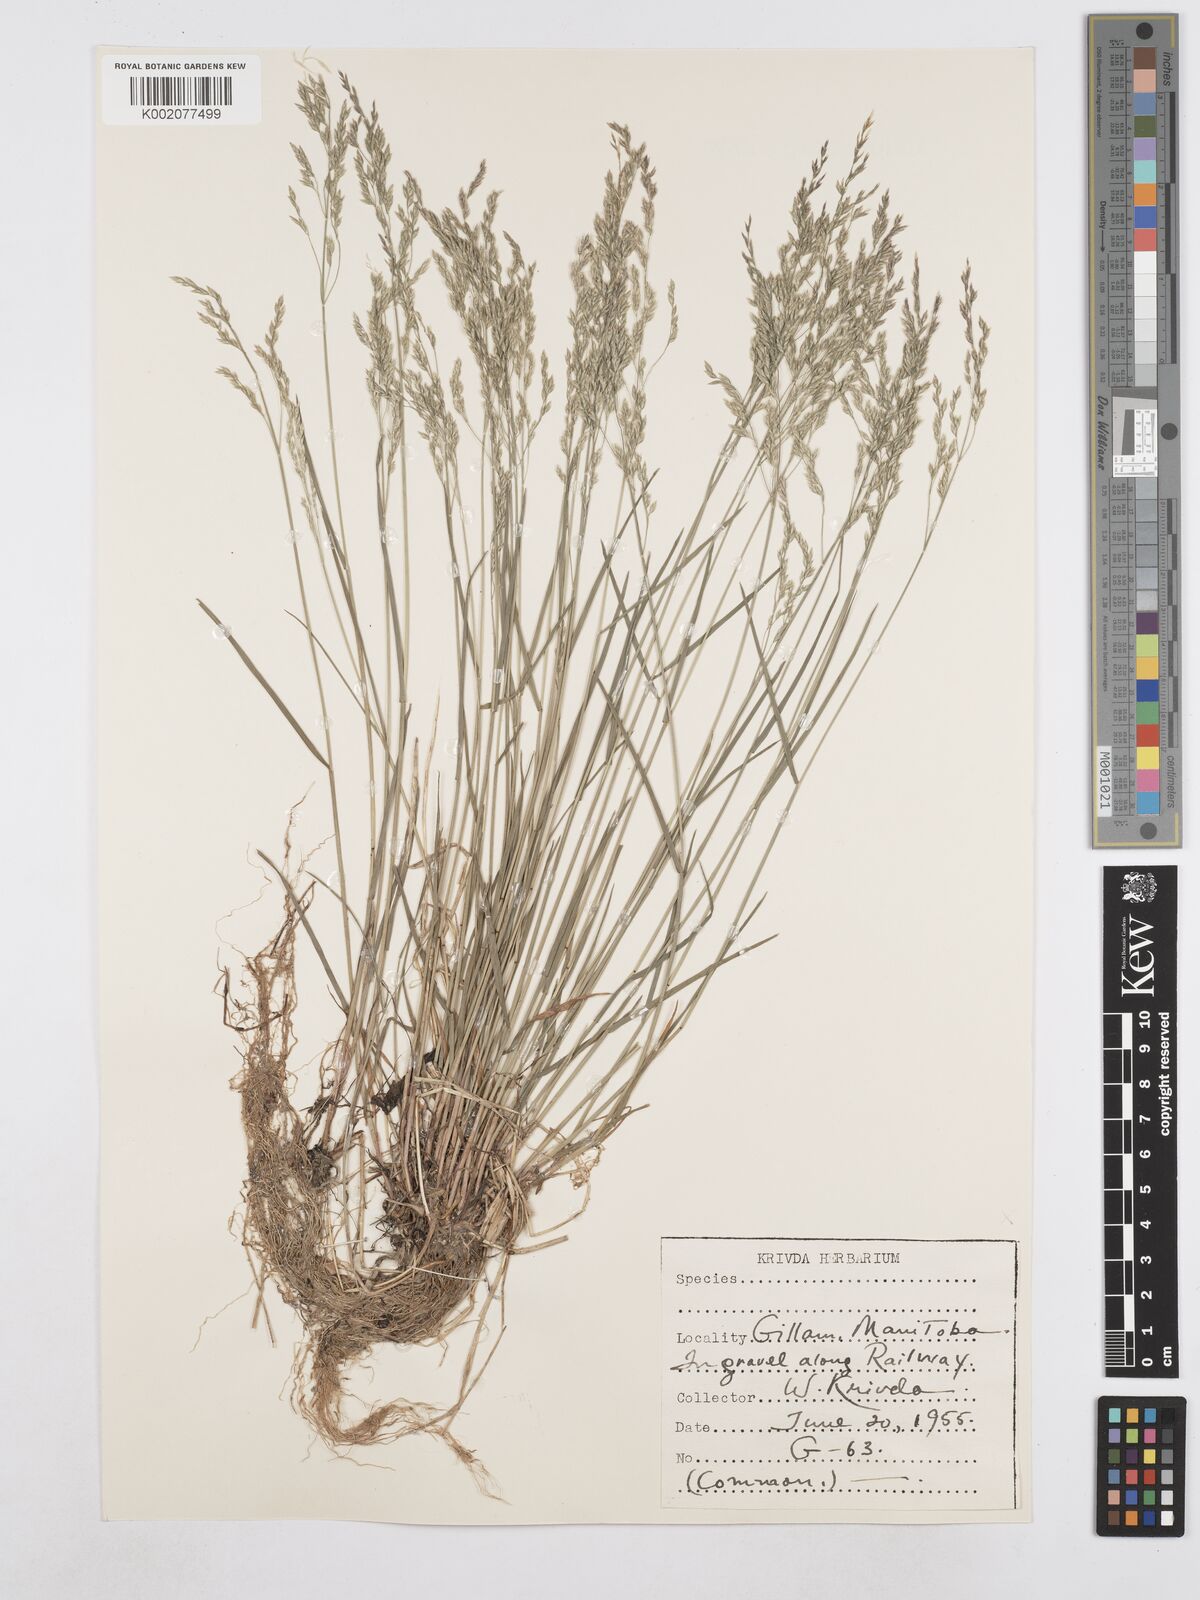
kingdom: Plantae
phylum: Tracheophyta
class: Liliopsida
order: Poales
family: Poaceae
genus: Poa
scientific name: Poa compressa
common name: Canada bluegrass
